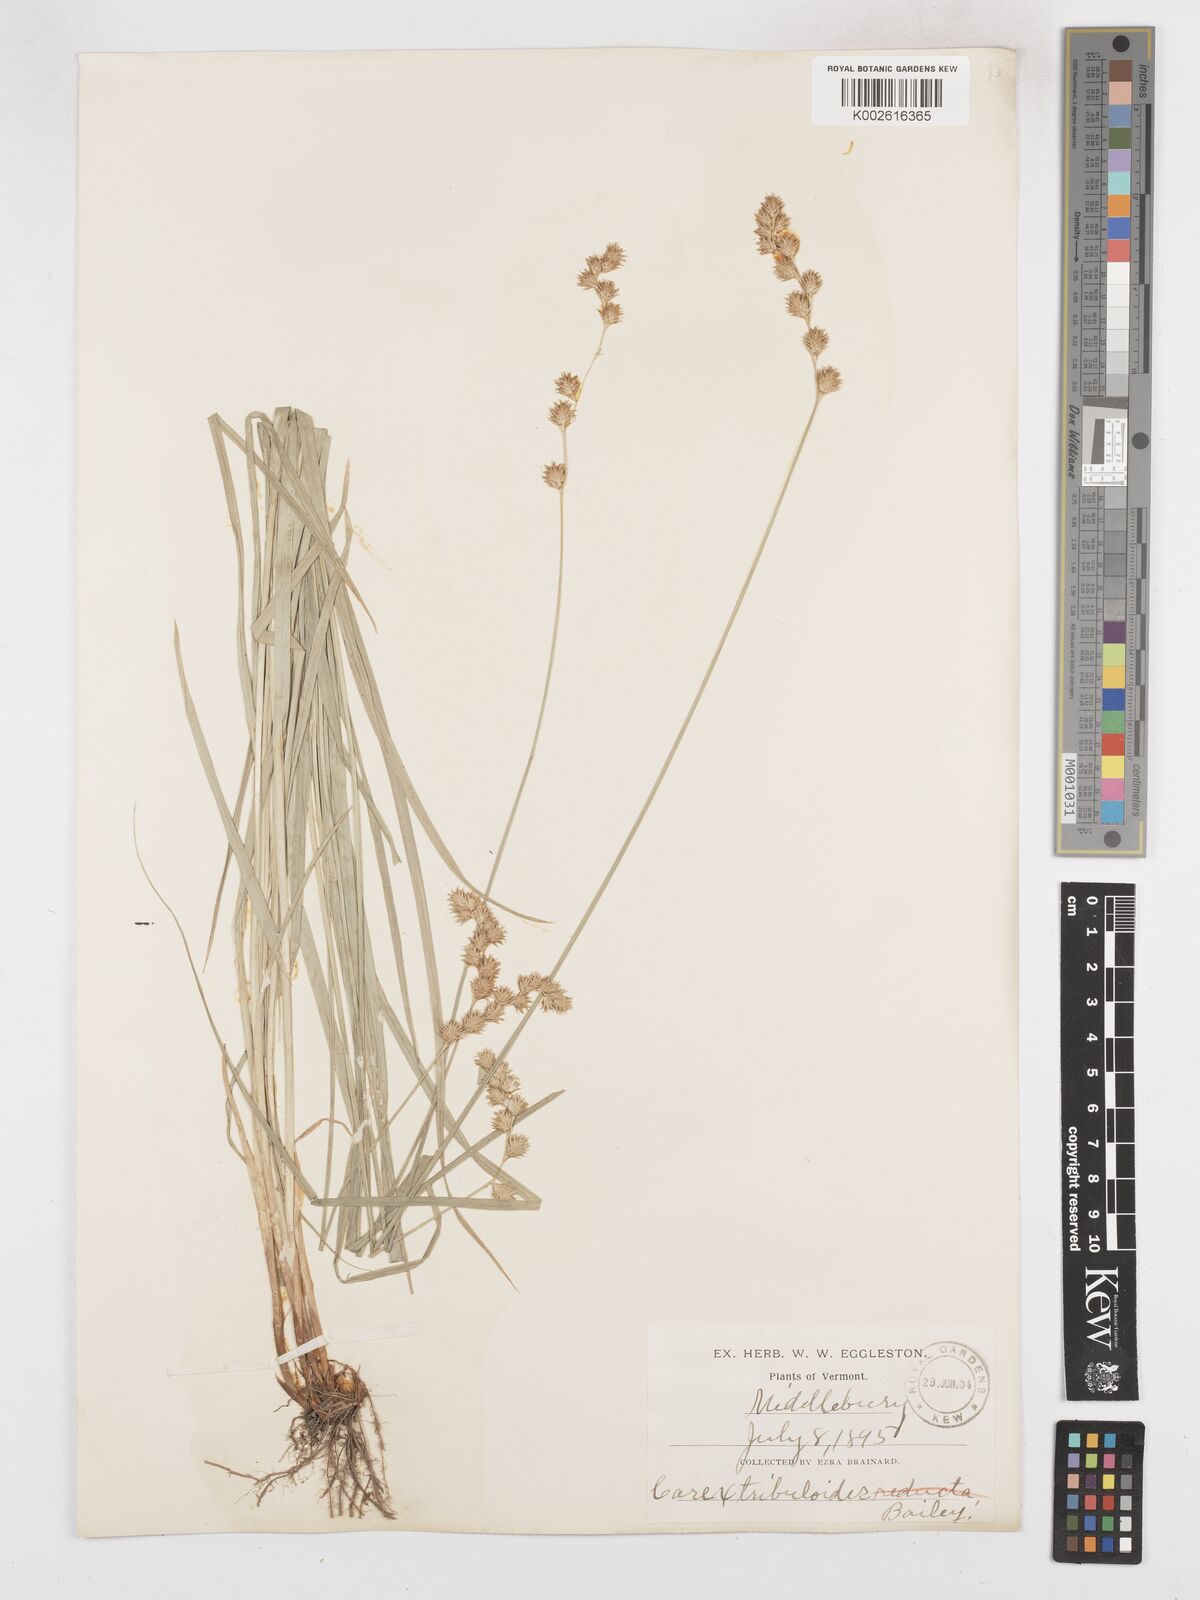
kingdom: Plantae
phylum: Tracheophyta
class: Liliopsida
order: Poales
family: Cyperaceae
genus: Carex
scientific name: Carex tribuloides
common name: Blunt broom sedge
